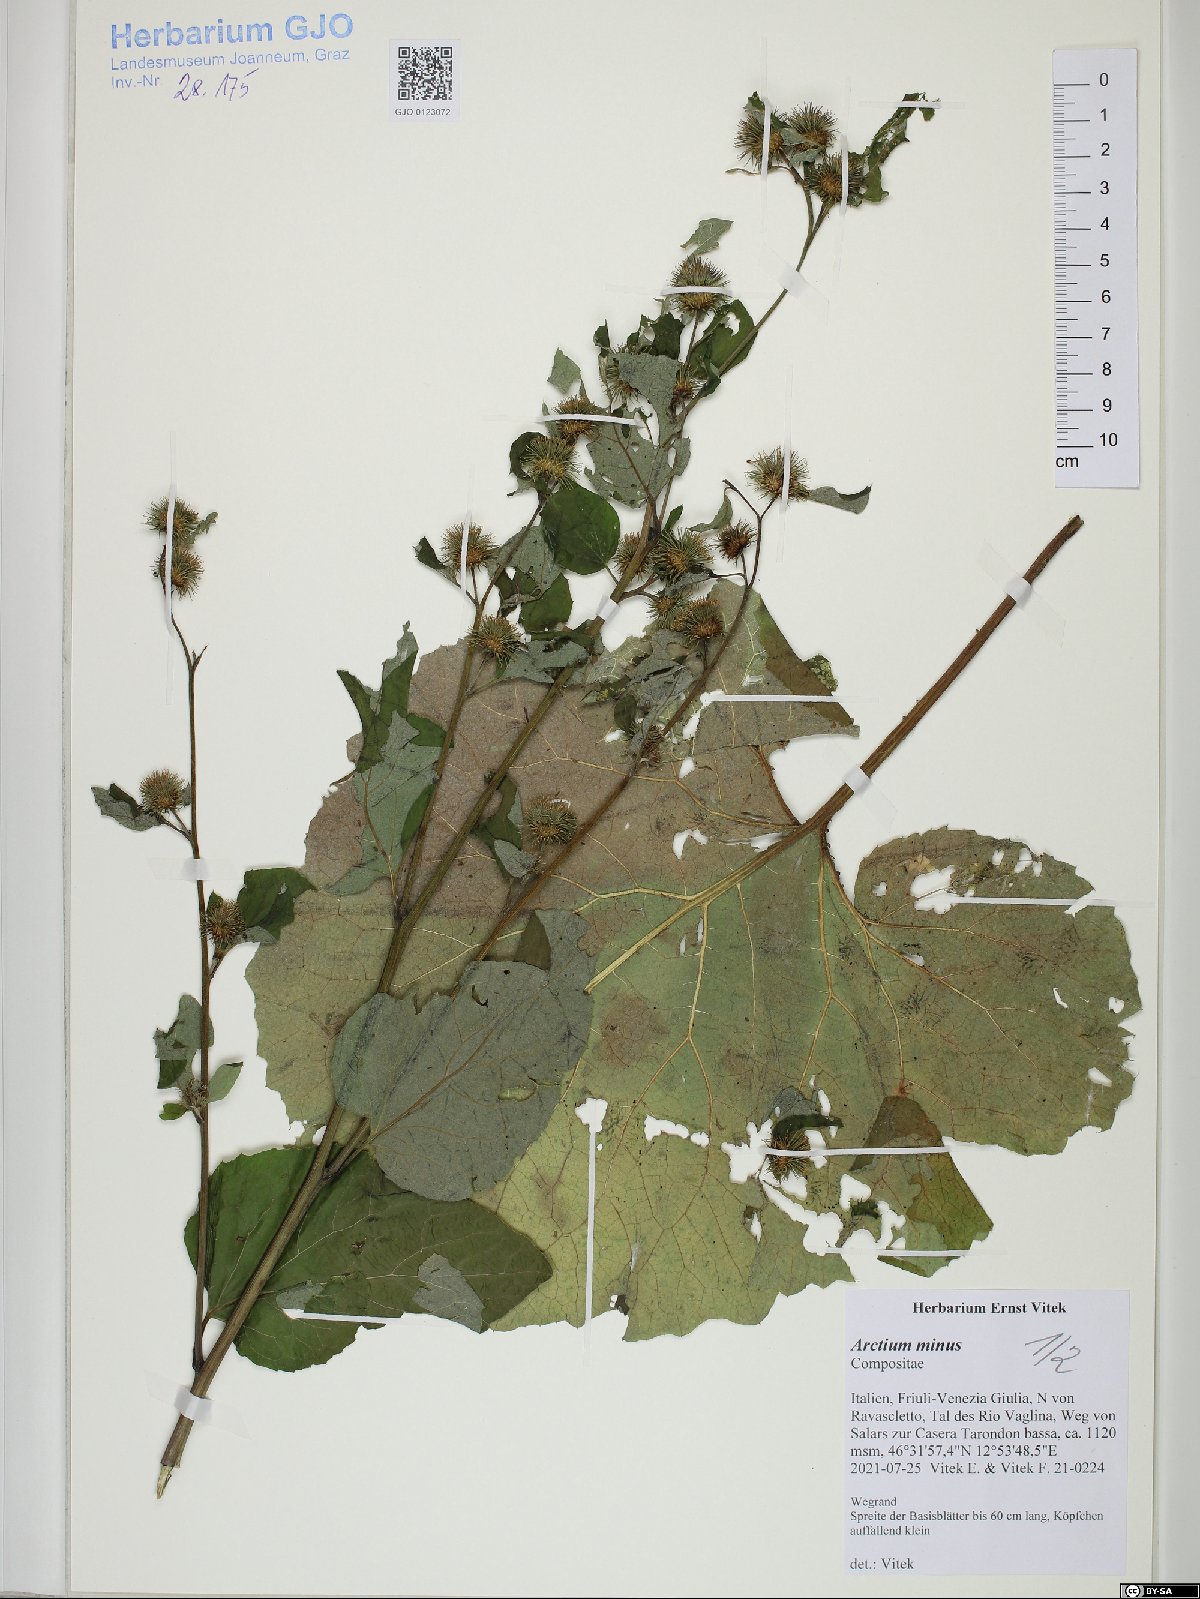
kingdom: Plantae
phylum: Tracheophyta
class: Magnoliopsida
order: Asterales
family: Asteraceae
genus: Arctium
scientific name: Arctium minus
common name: Lesser burdock
